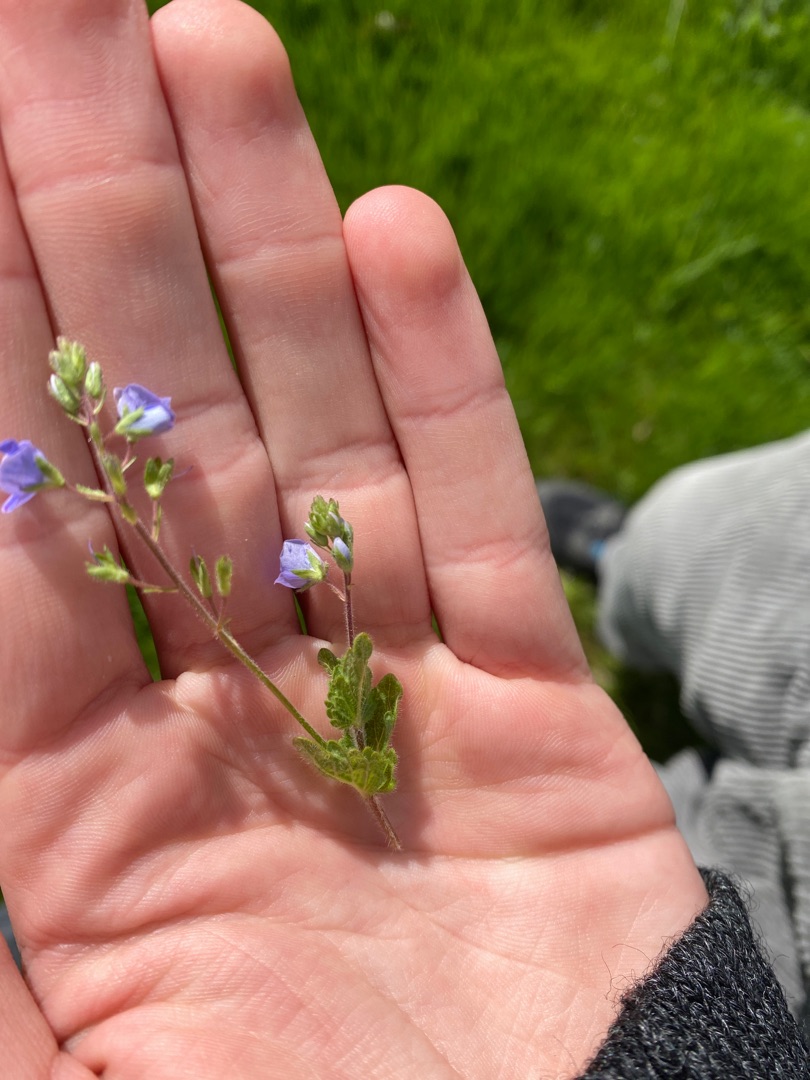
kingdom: Plantae
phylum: Tracheophyta
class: Magnoliopsida
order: Lamiales
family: Plantaginaceae
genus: Veronica
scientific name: Veronica chamaedrys
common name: Tveskægget ærenpris
